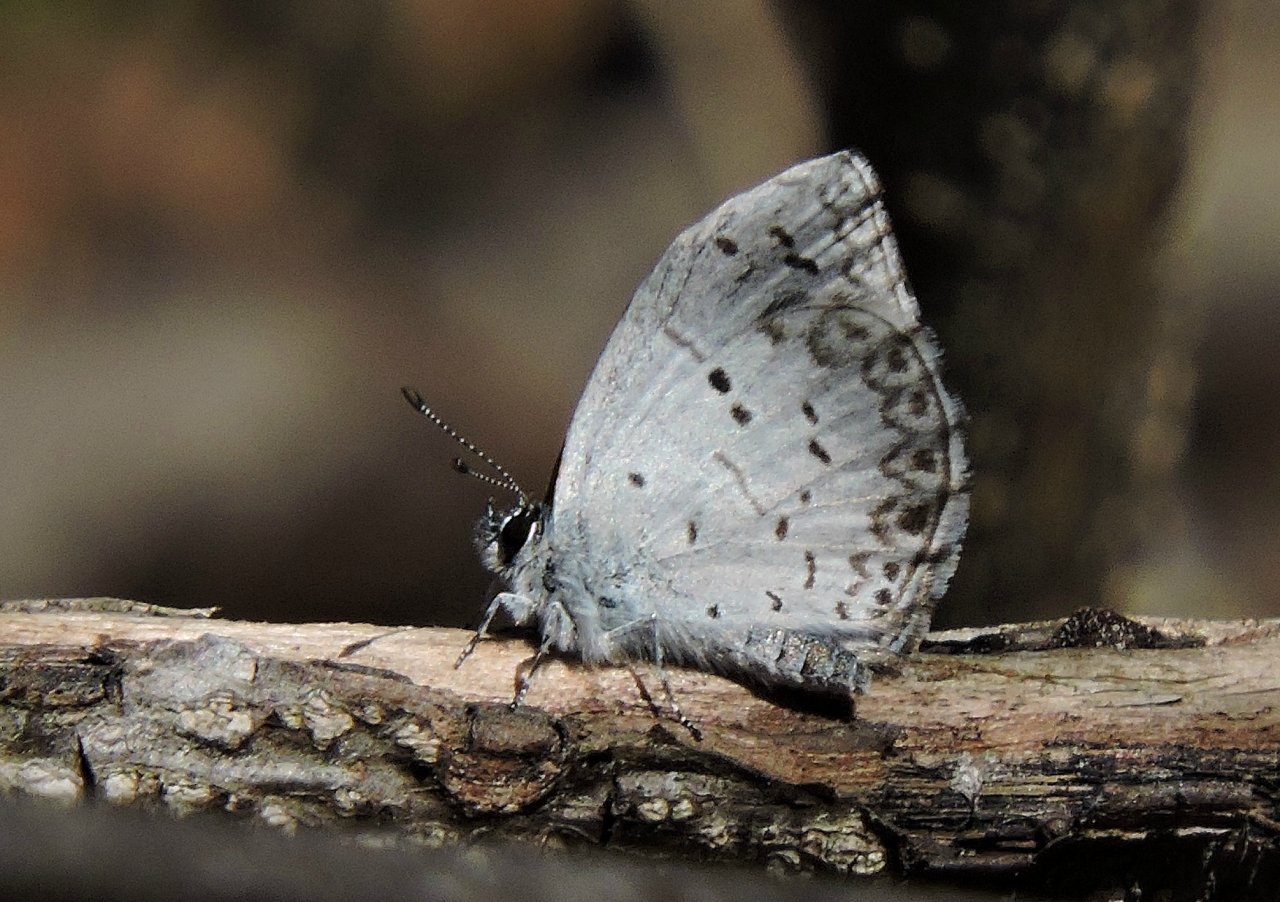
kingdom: Animalia
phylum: Arthropoda
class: Insecta
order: Lepidoptera
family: Lycaenidae
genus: Celastrina
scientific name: Celastrina
